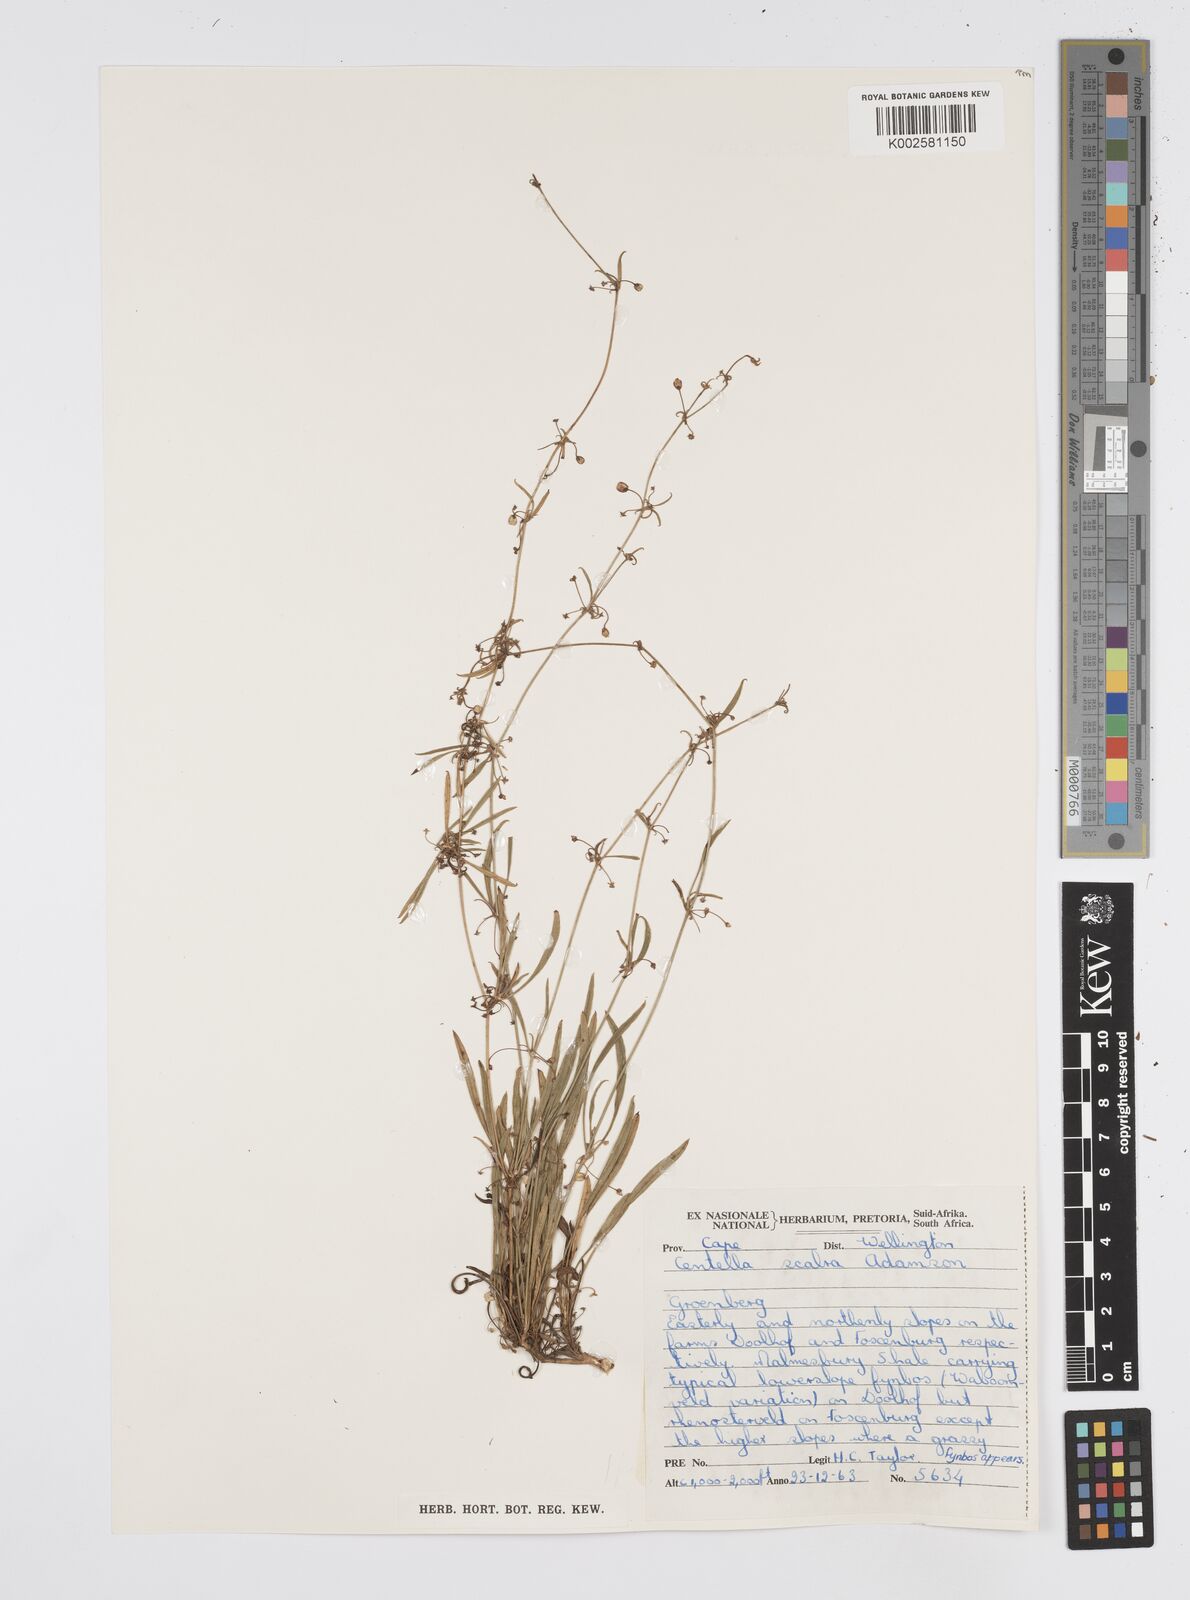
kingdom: Plantae
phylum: Tracheophyta
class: Magnoliopsida
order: Apiales
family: Apiaceae
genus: Centella
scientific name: Centella scabra
